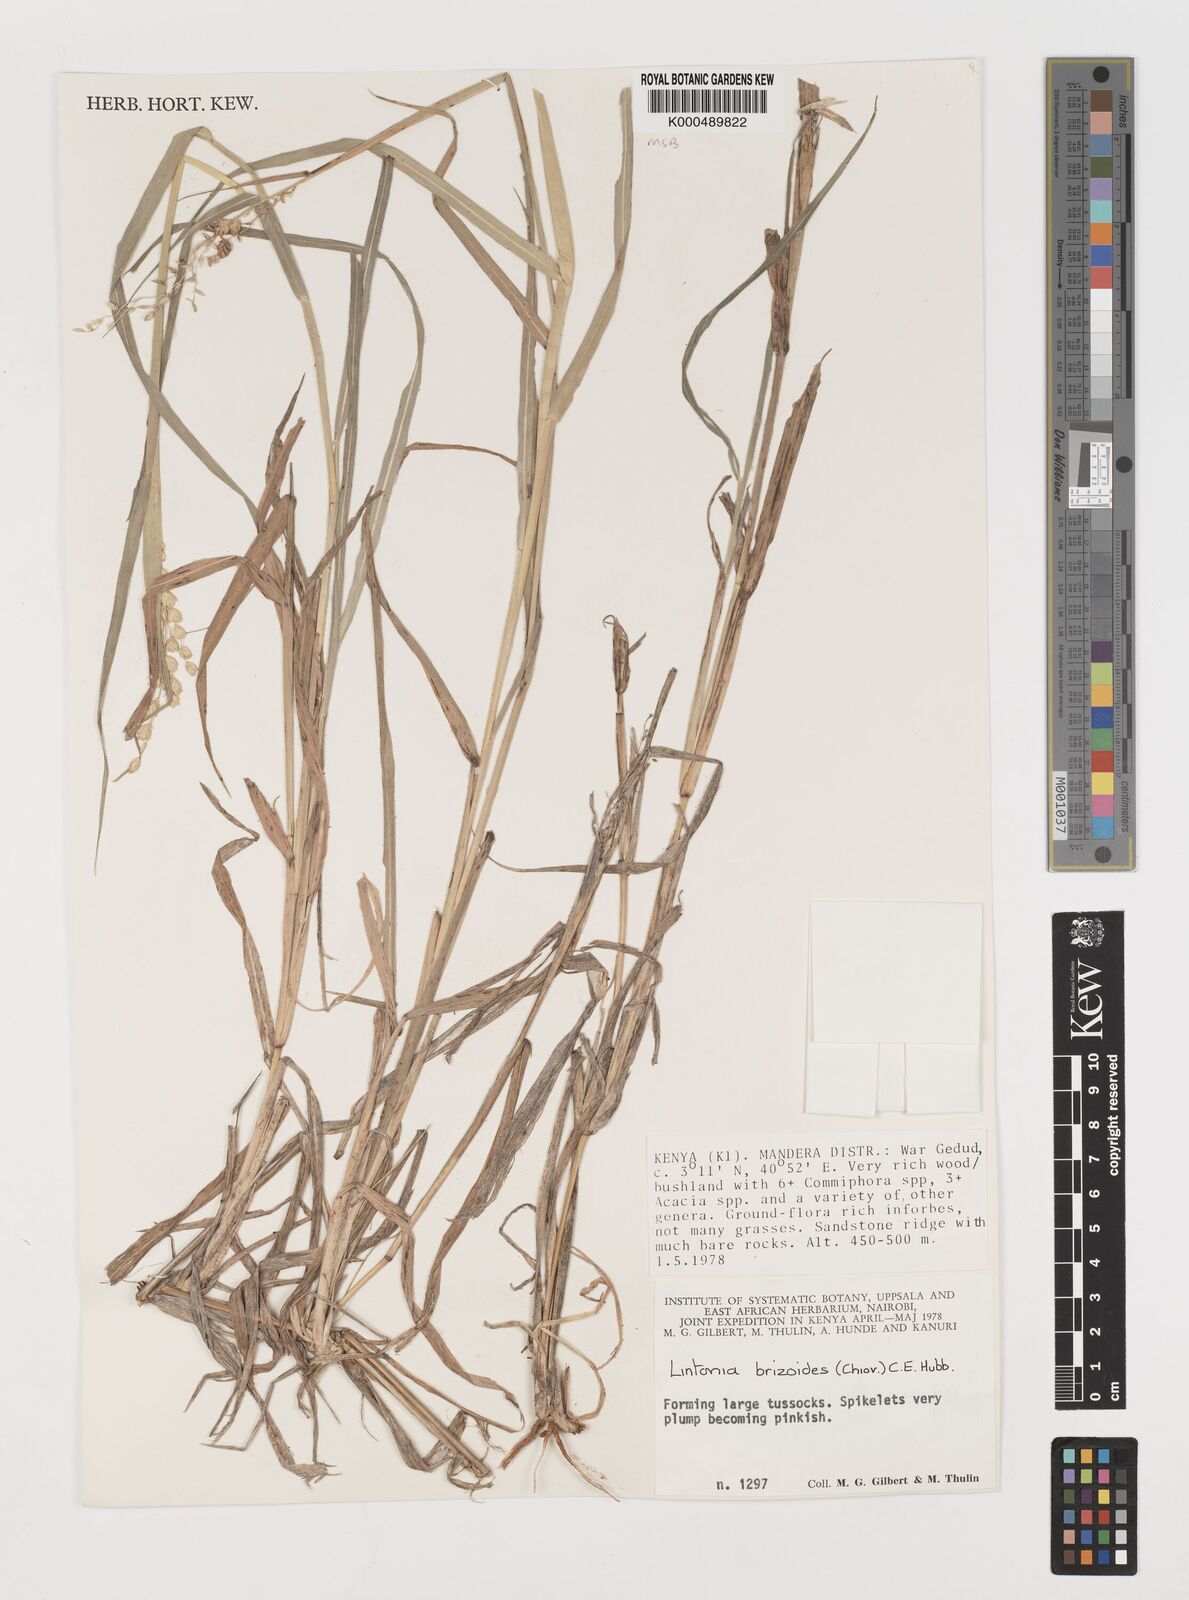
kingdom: Plantae
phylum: Tracheophyta
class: Liliopsida
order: Poales
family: Poaceae
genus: Chloris
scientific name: Chloris Lintonia brizoides
